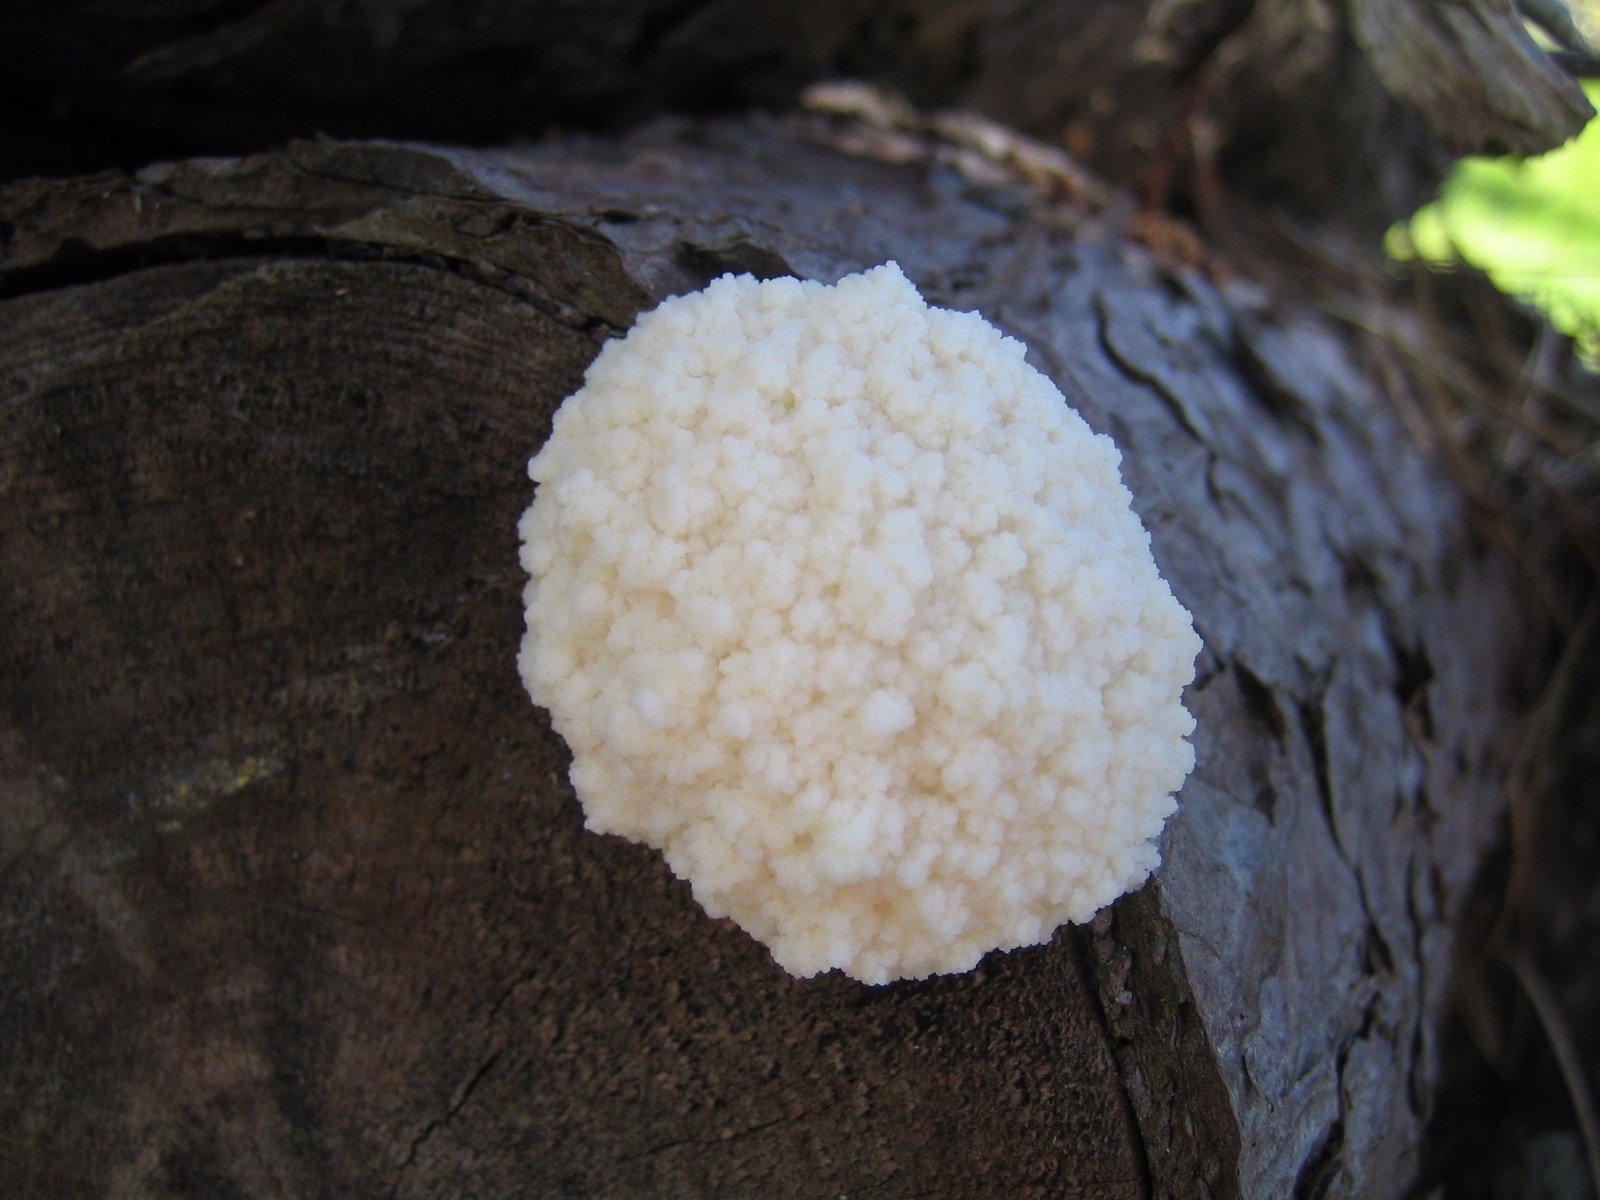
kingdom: Protozoa
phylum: Mycetozoa
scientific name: Mycetozoa
